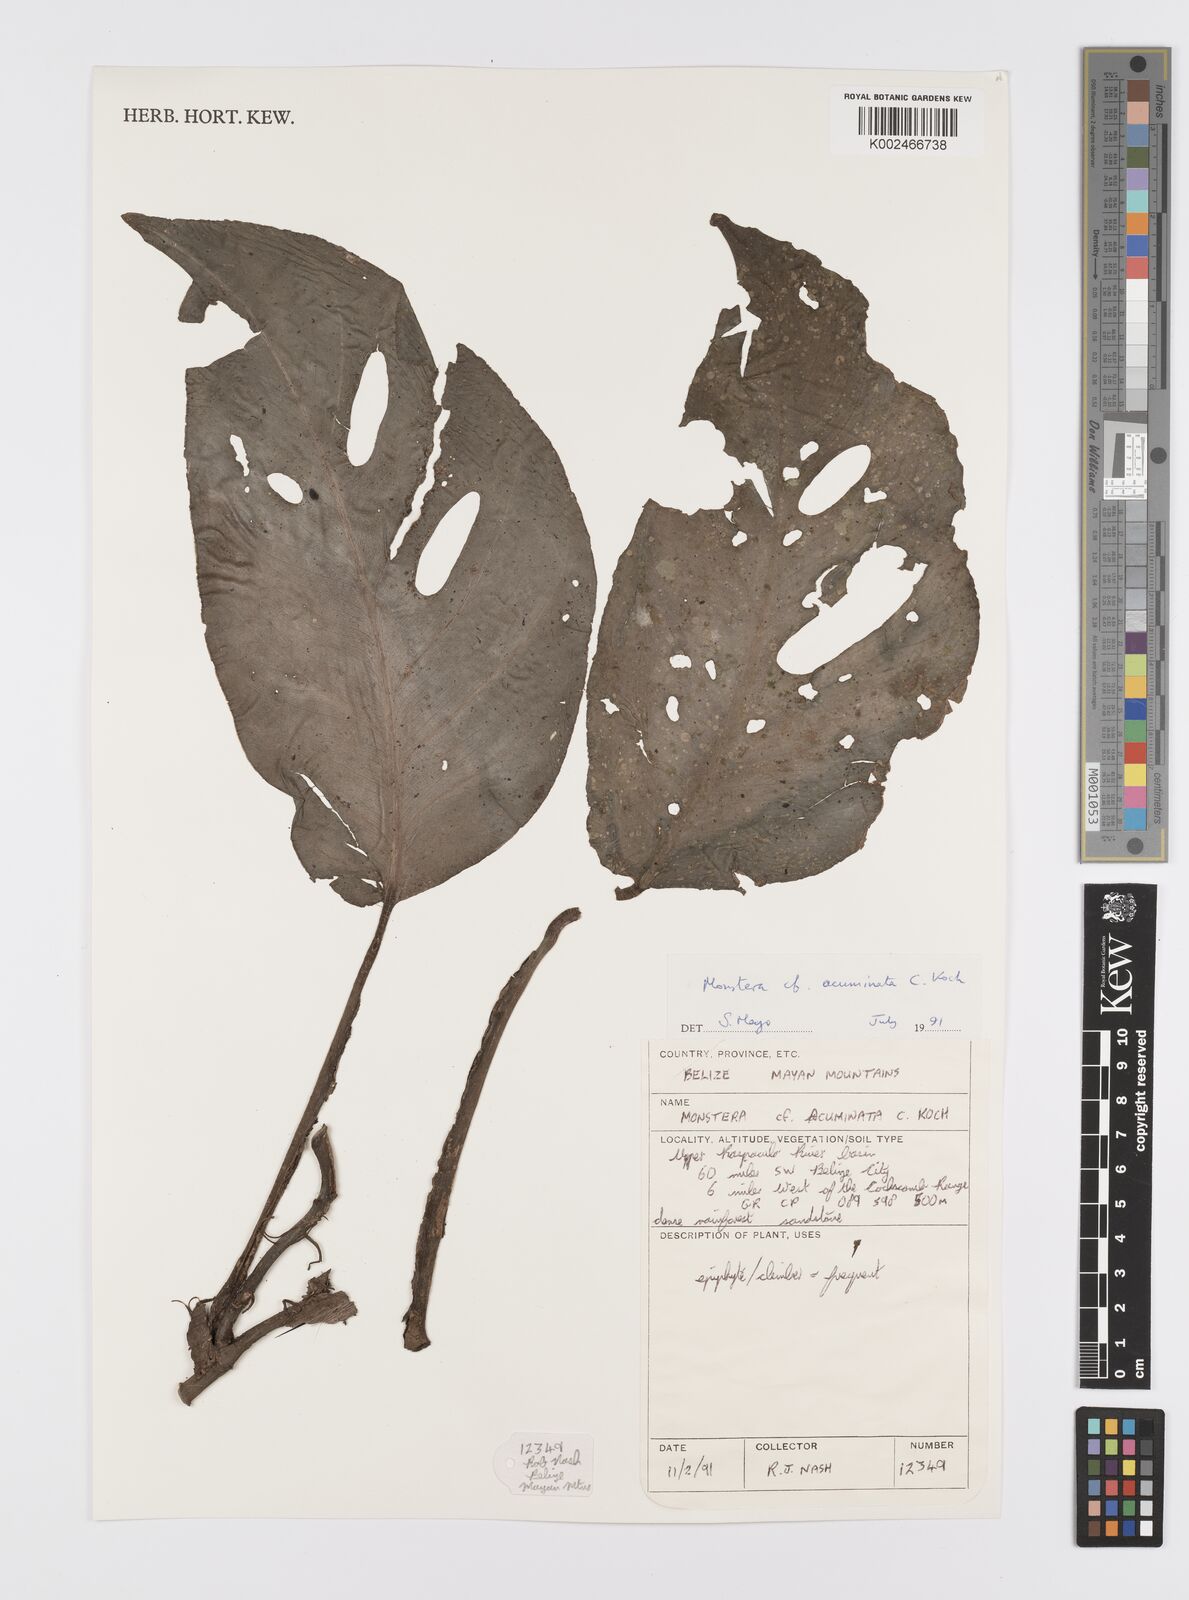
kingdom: Plantae
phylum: Tracheophyta
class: Liliopsida
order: Alismatales
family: Araceae
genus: Monstera
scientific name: Monstera acuminata
